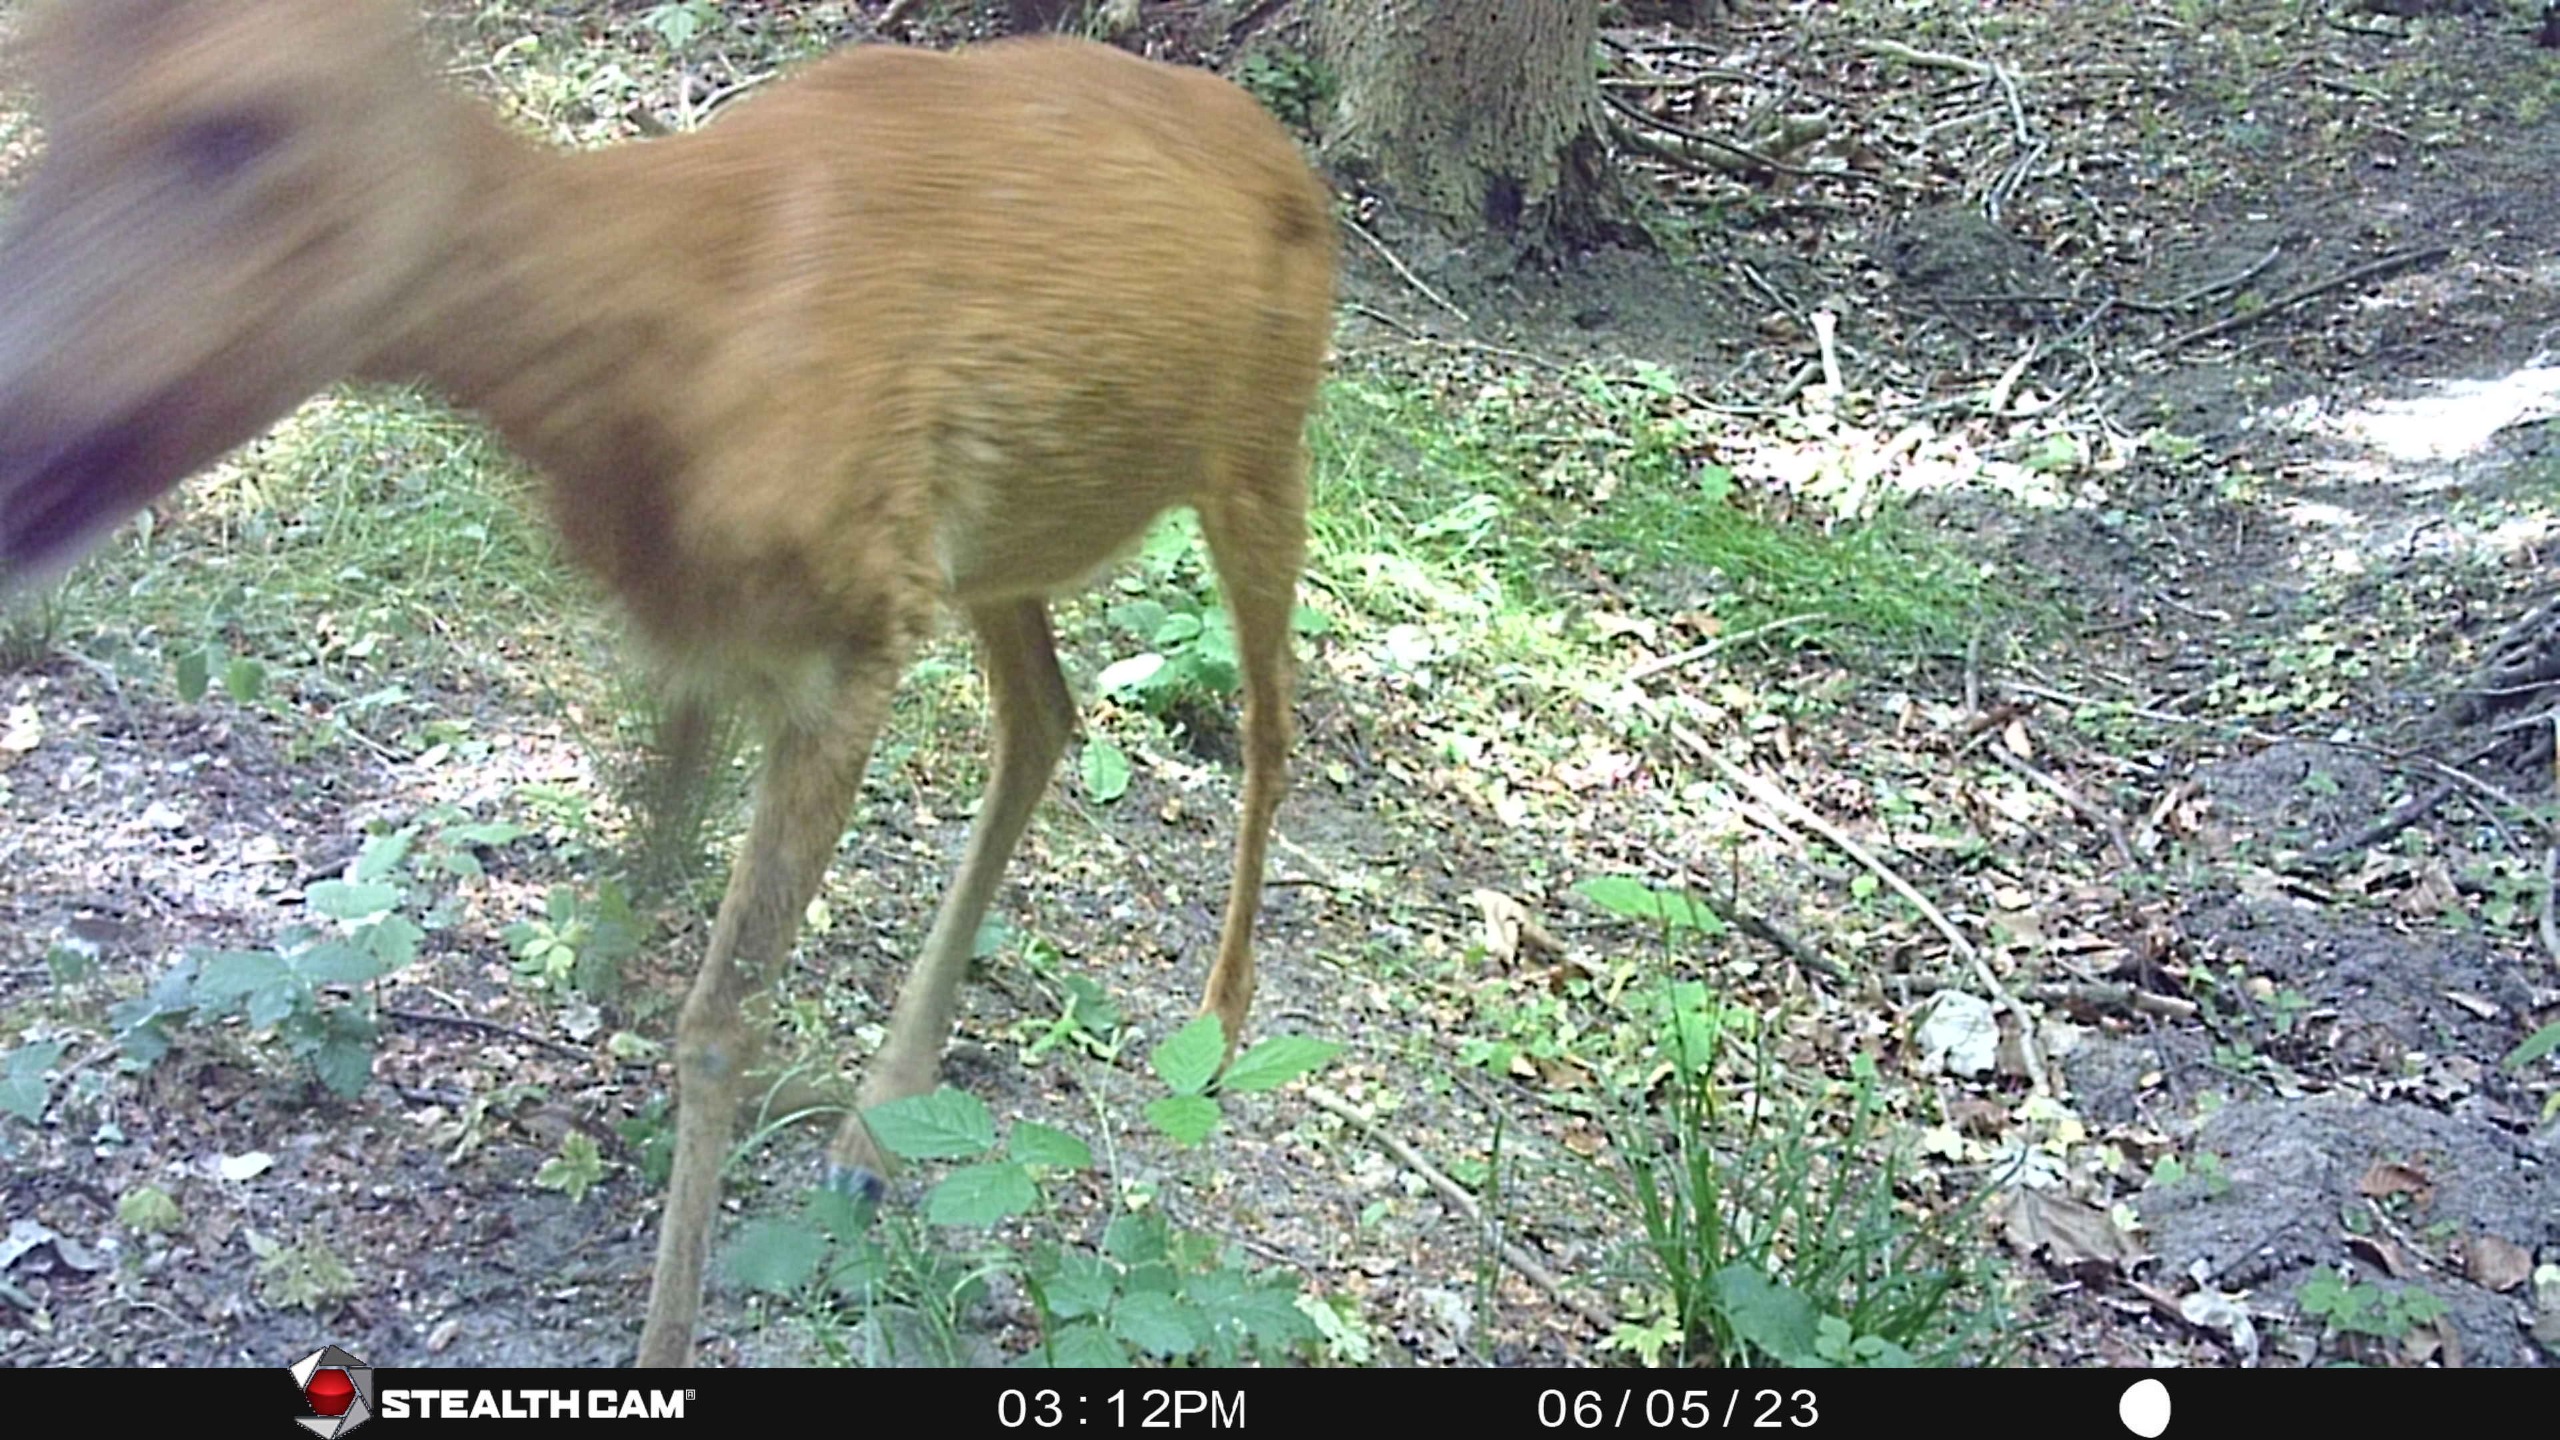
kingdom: Animalia
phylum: Chordata
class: Mammalia
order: Artiodactyla
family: Cervidae
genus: Capreolus
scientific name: Capreolus capreolus
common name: Rådyr
